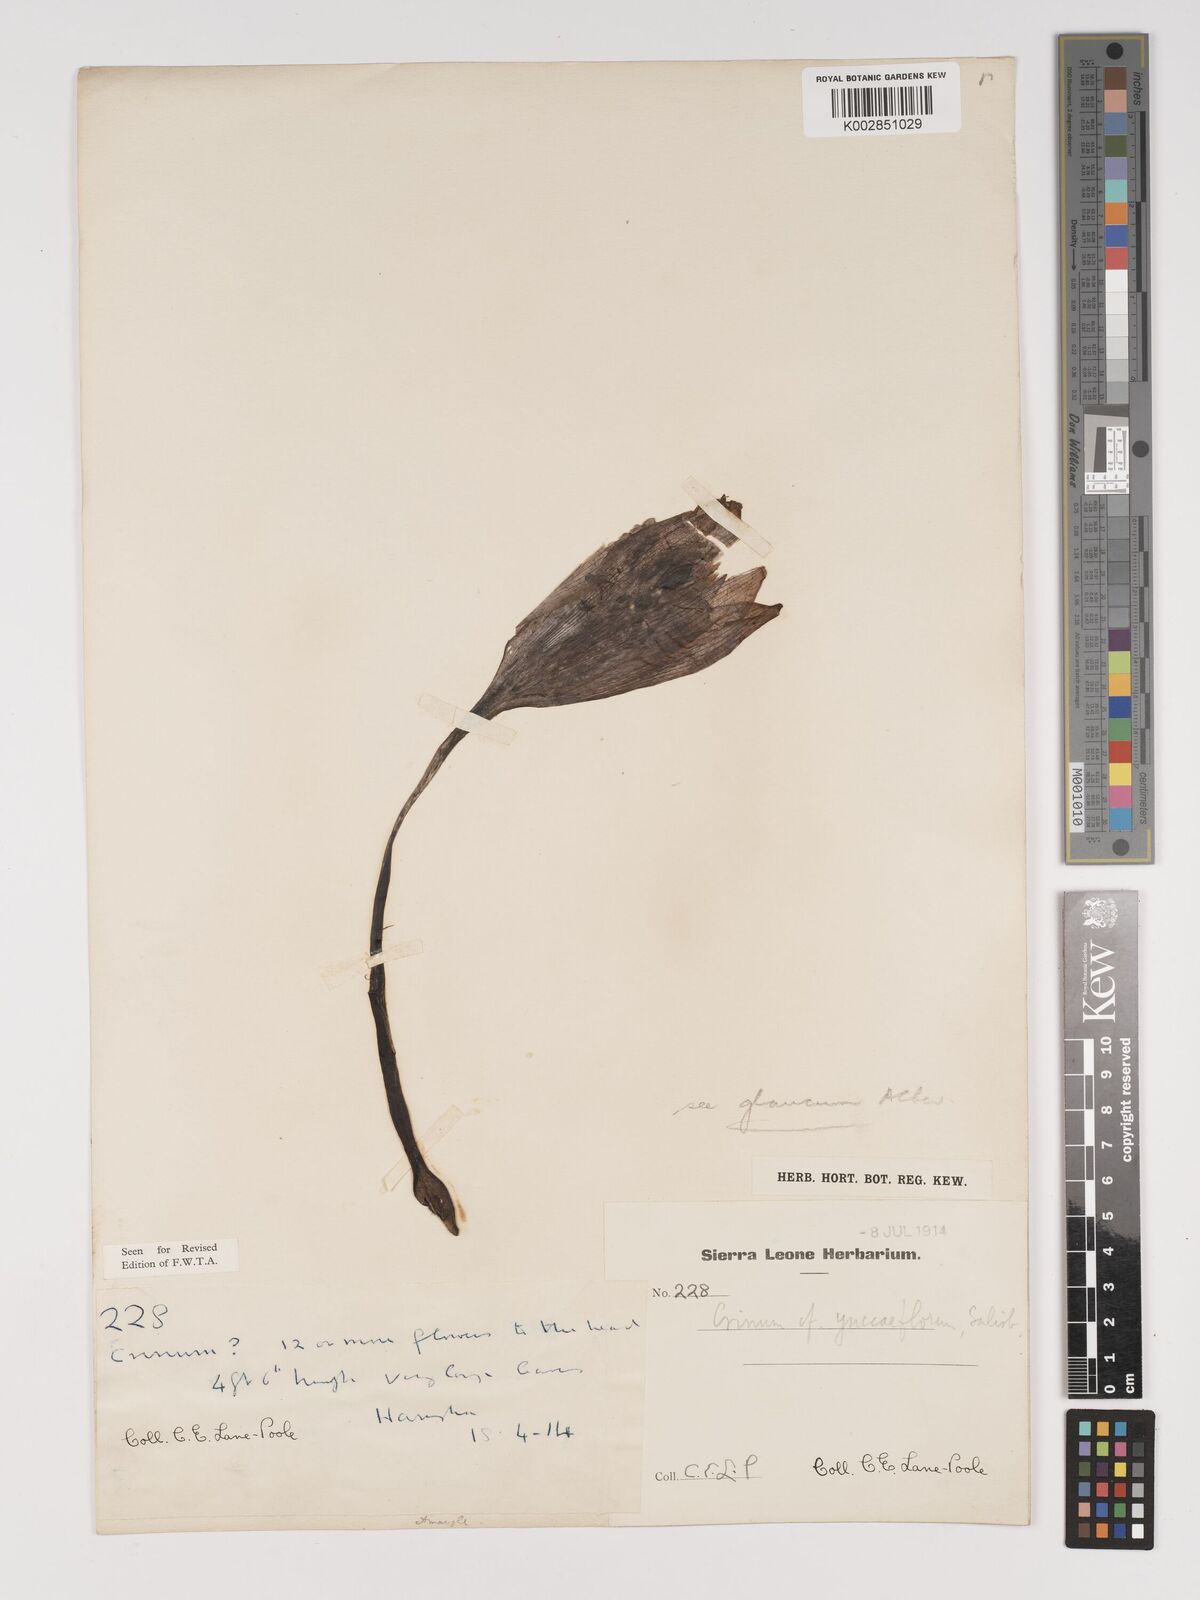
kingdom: Plantae
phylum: Tracheophyta
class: Liliopsida
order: Asparagales
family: Amaryllidaceae
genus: Crinum
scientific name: Crinum jagus
